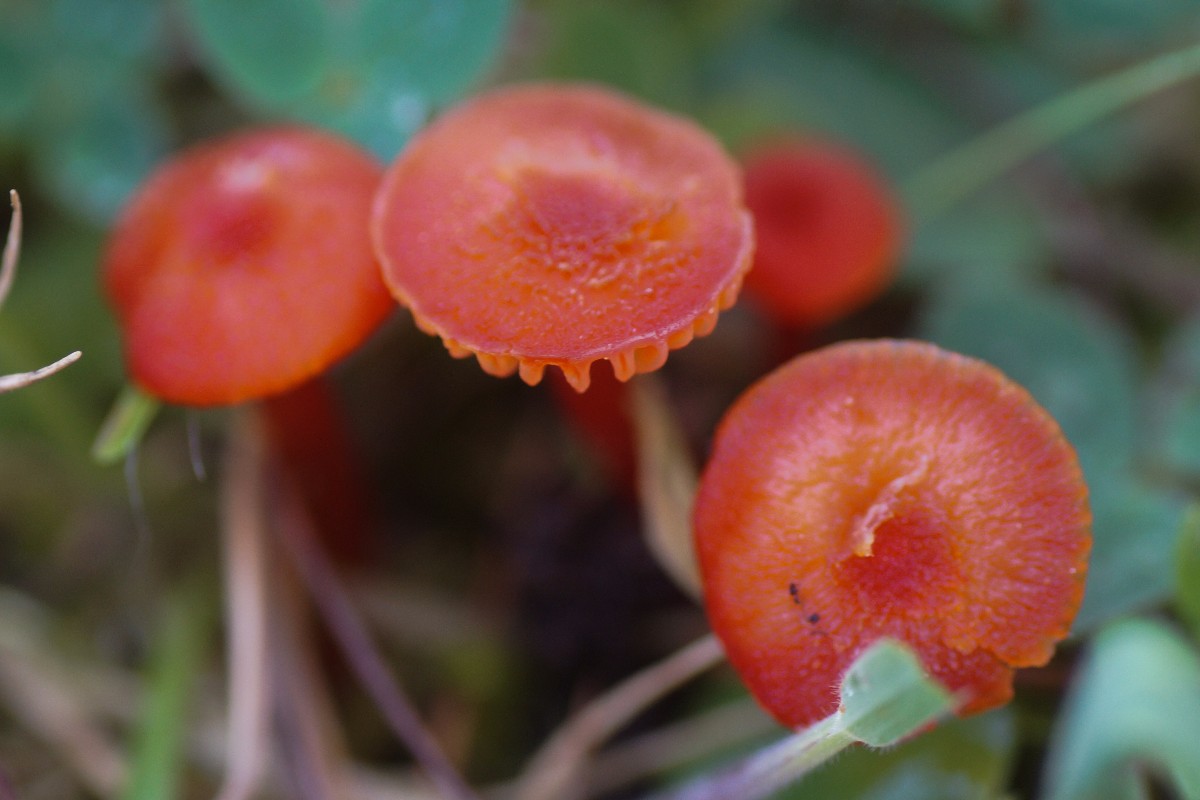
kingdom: Fungi
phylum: Basidiomycota
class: Agaricomycetes
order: Agaricales
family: Hygrophoraceae
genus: Hygrocybe
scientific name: Hygrocybe cantharellus
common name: kantarel-vokshat
